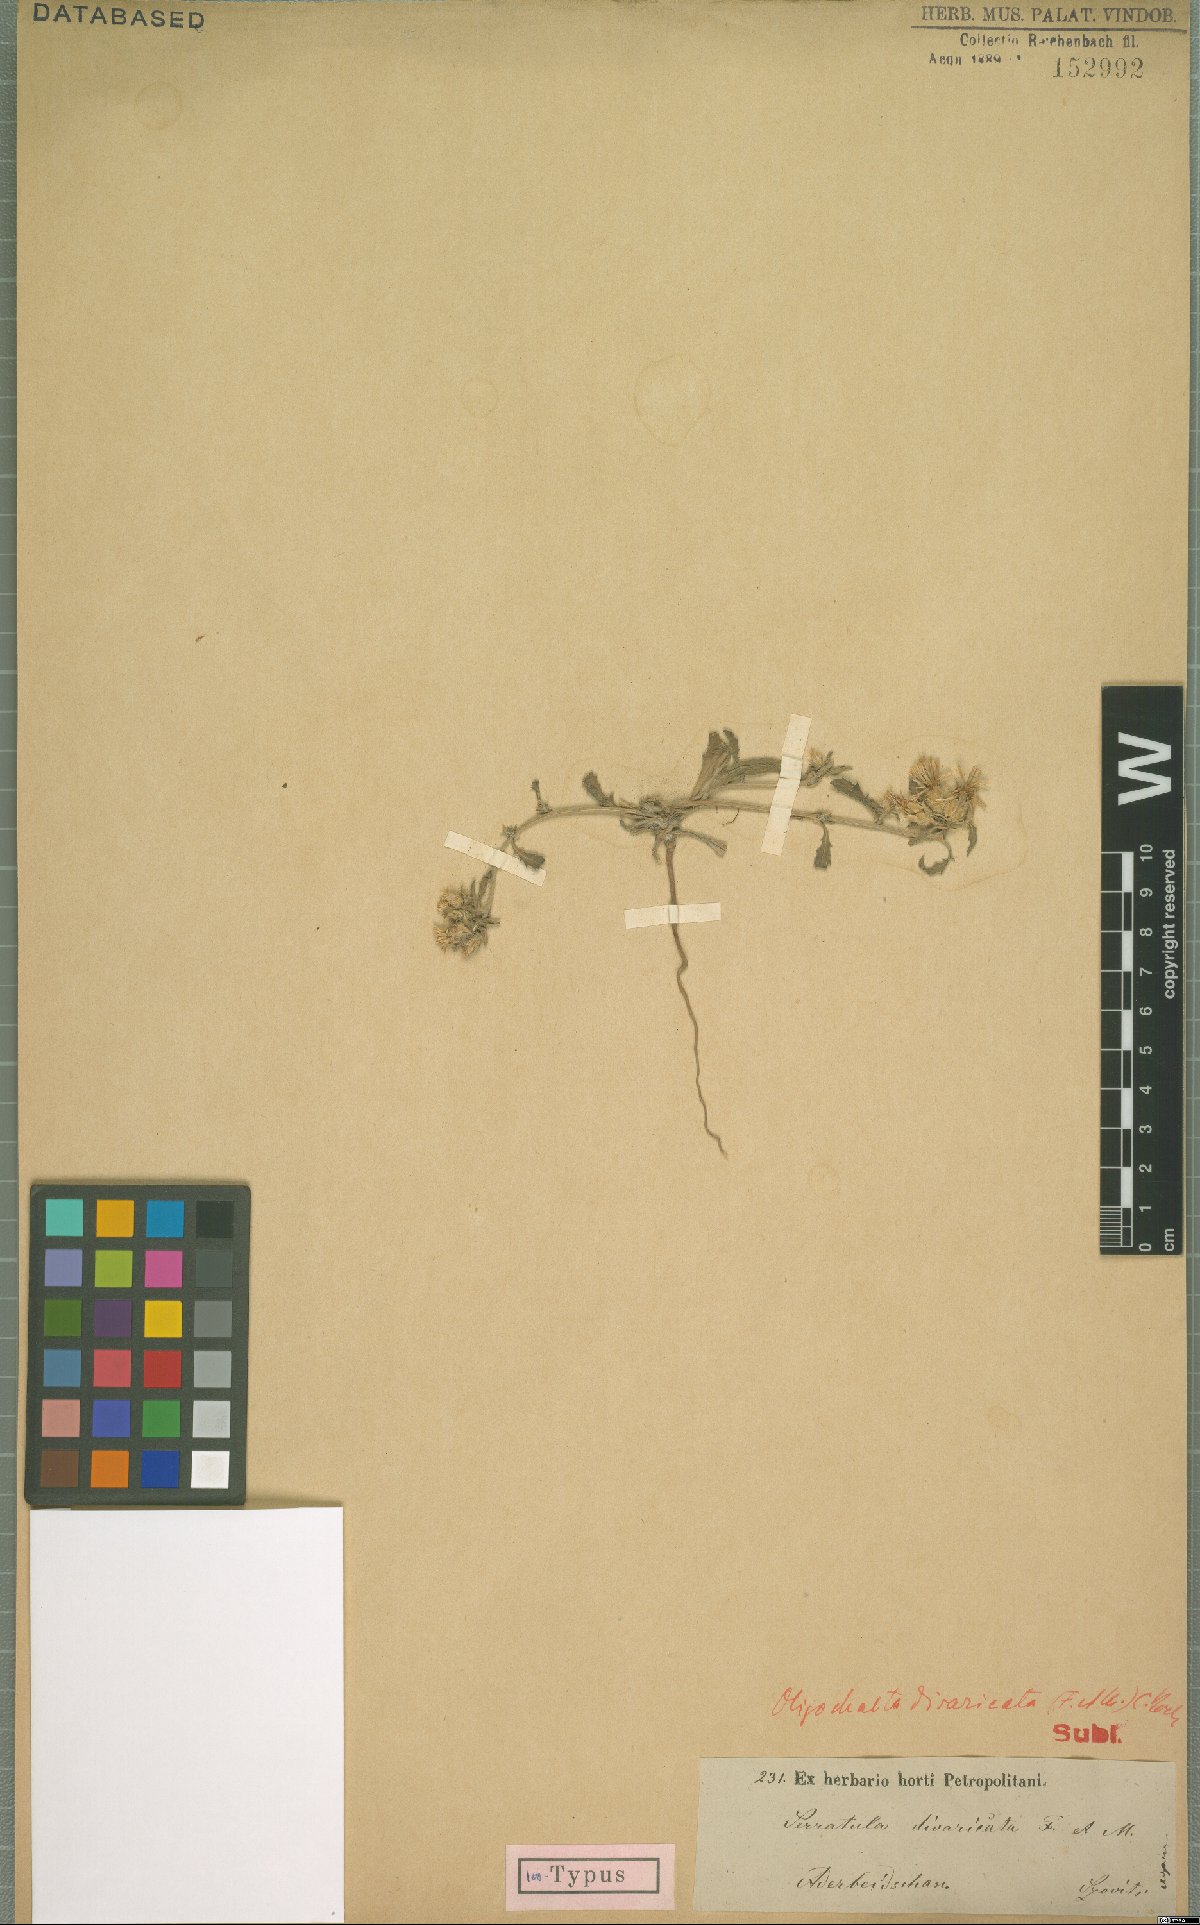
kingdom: Plantae
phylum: Tracheophyta
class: Magnoliopsida
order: Asterales
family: Asteraceae
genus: Oligochaeta
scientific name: Oligochaeta divaricata
